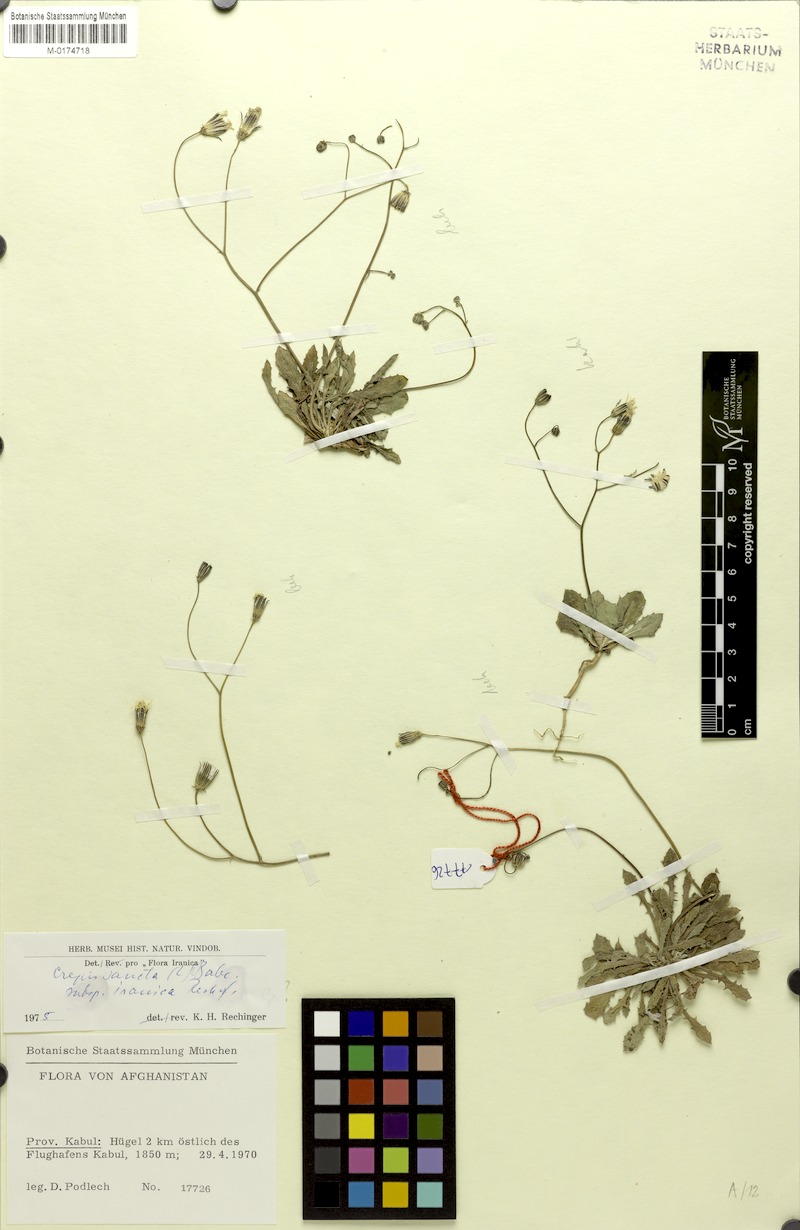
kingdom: Plantae
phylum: Tracheophyta
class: Magnoliopsida
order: Asterales
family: Asteraceae
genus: Crepis
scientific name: Crepis sancta
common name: Hawk's-beard
